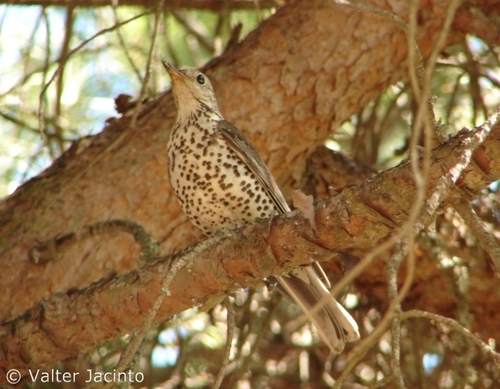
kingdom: Animalia
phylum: Chordata
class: Aves
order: Passeriformes
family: Turdidae
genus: Turdus
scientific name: Turdus viscivorus
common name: Mistle thrush
